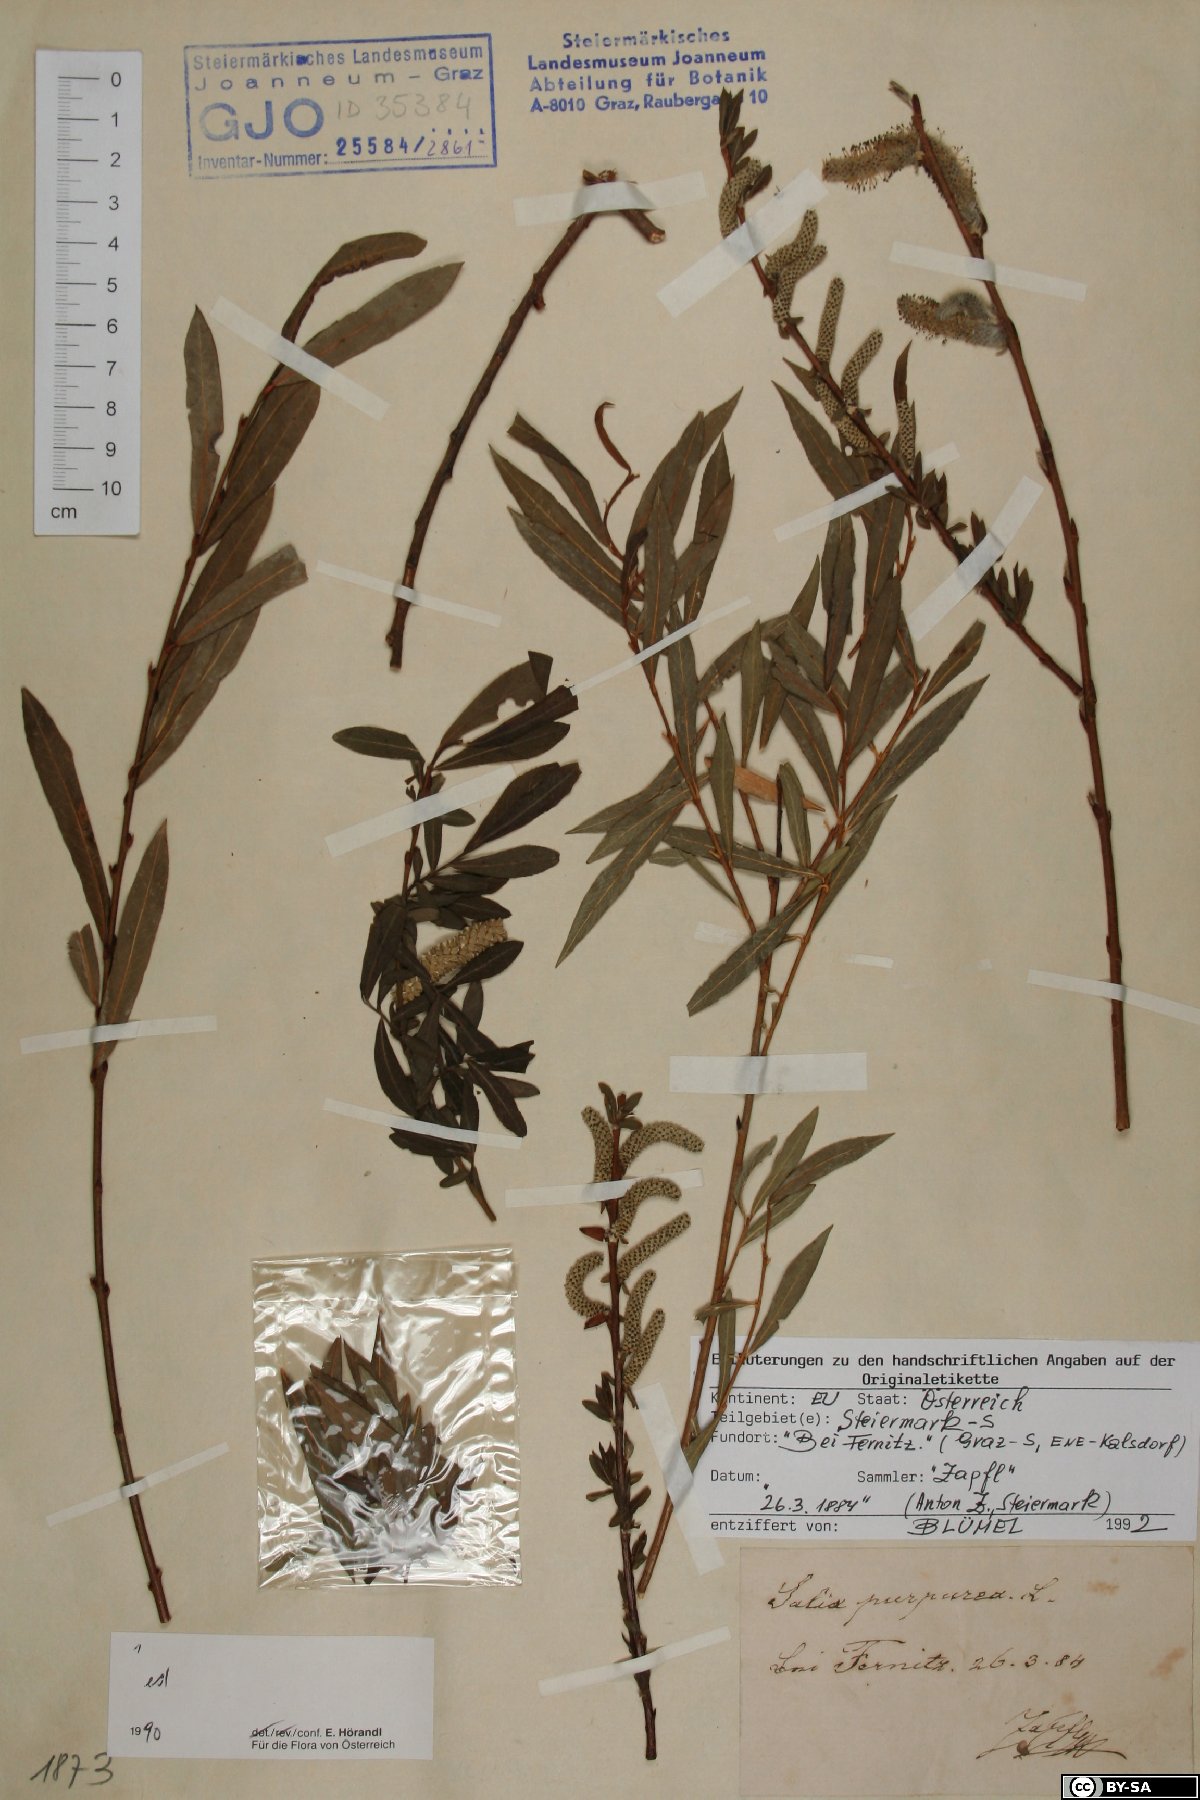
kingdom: Plantae
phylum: Tracheophyta
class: Magnoliopsida
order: Malpighiales
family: Salicaceae
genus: Salix
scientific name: Salix purpurea
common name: Purple willow
